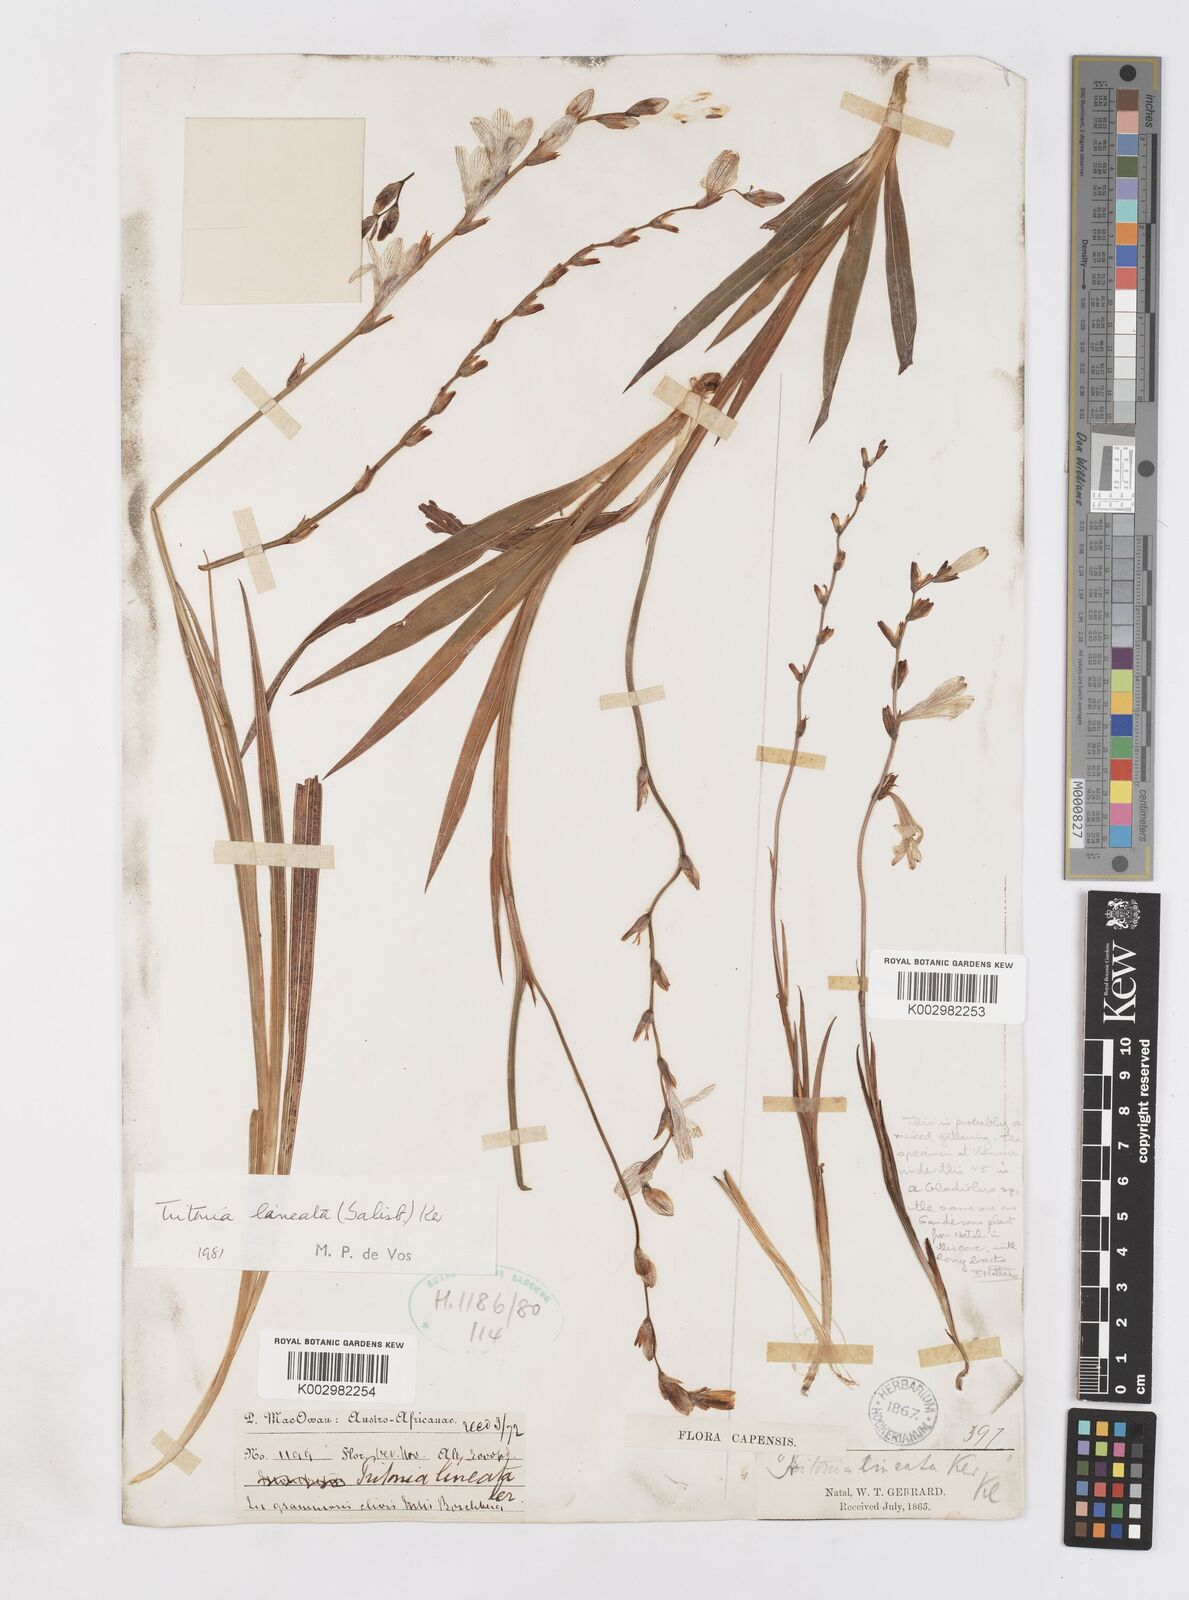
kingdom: Plantae
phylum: Tracheophyta
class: Liliopsida
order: Asparagales
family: Iridaceae
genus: Tritonia
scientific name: Tritonia gladiolaris
